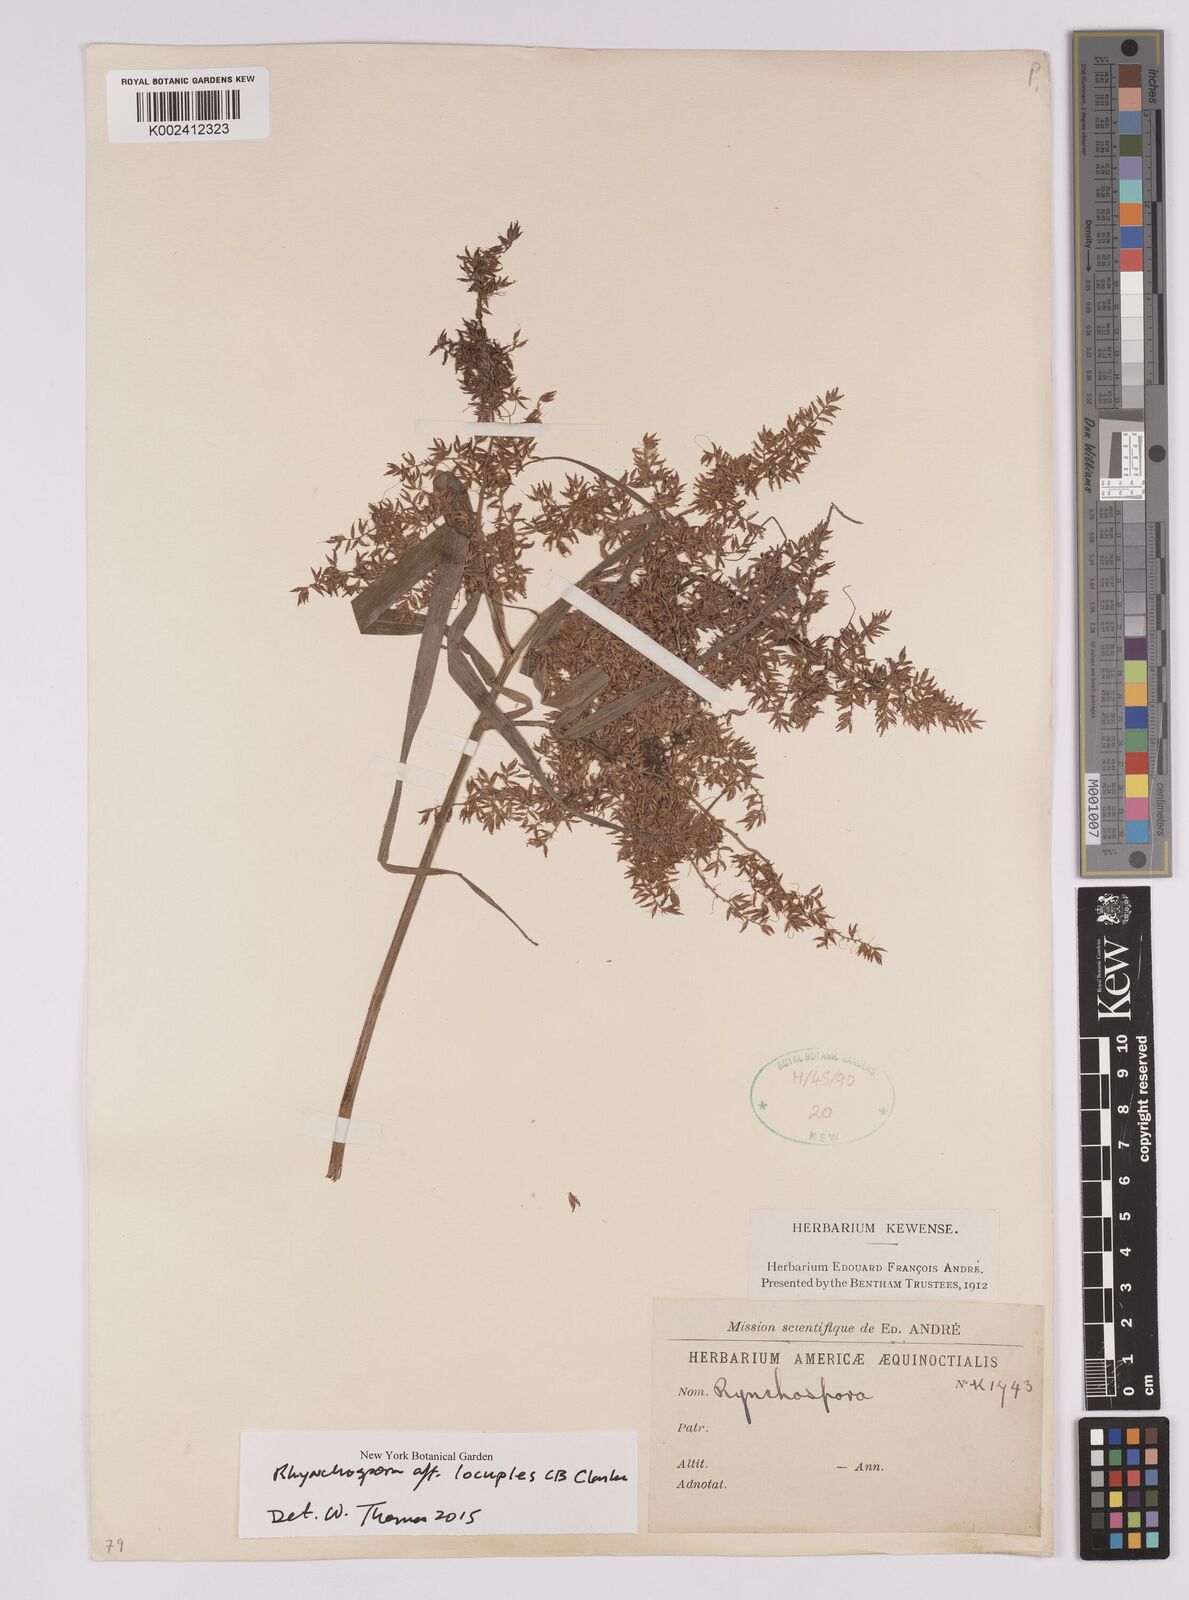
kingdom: Plantae
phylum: Tracheophyta
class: Liliopsida
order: Poales
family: Cyperaceae
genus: Rhynchospora
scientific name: Rhynchospora locuples
